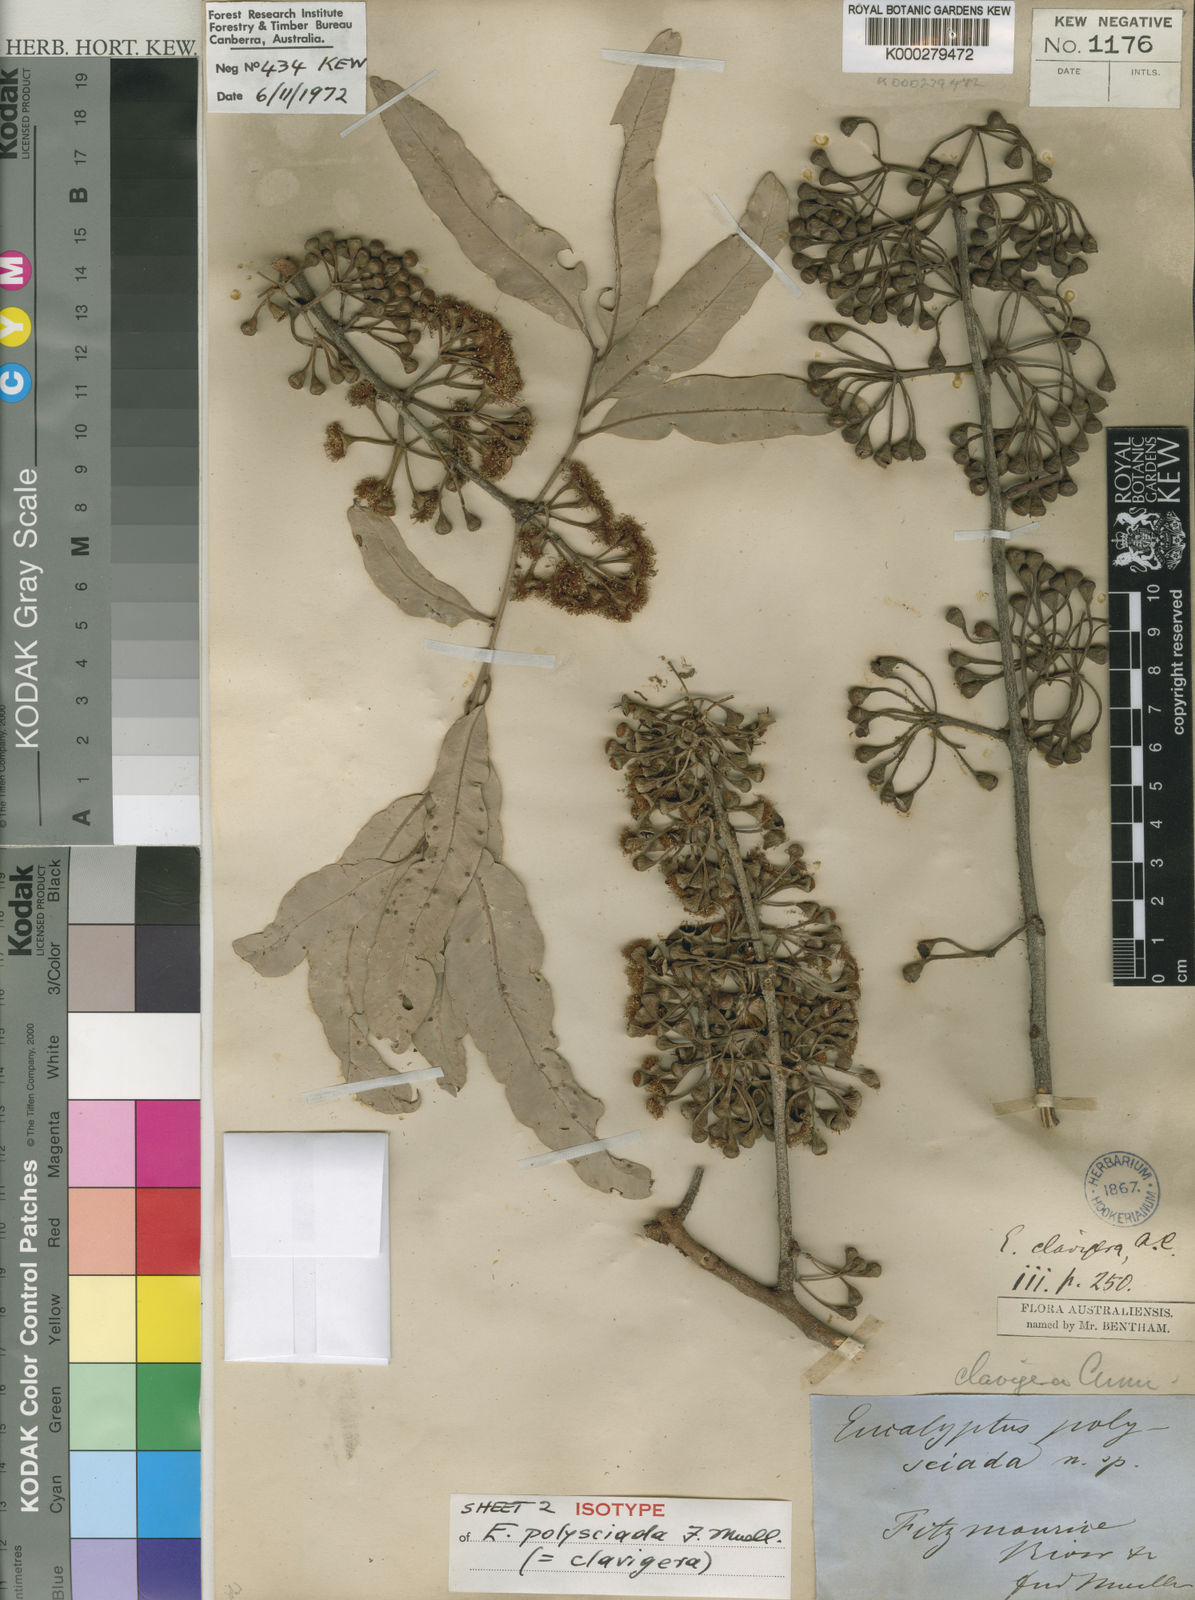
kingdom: Plantae
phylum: Tracheophyta
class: Magnoliopsida
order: Myrtales
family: Myrtaceae
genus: Corymbia
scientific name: Corymbia clavigera
